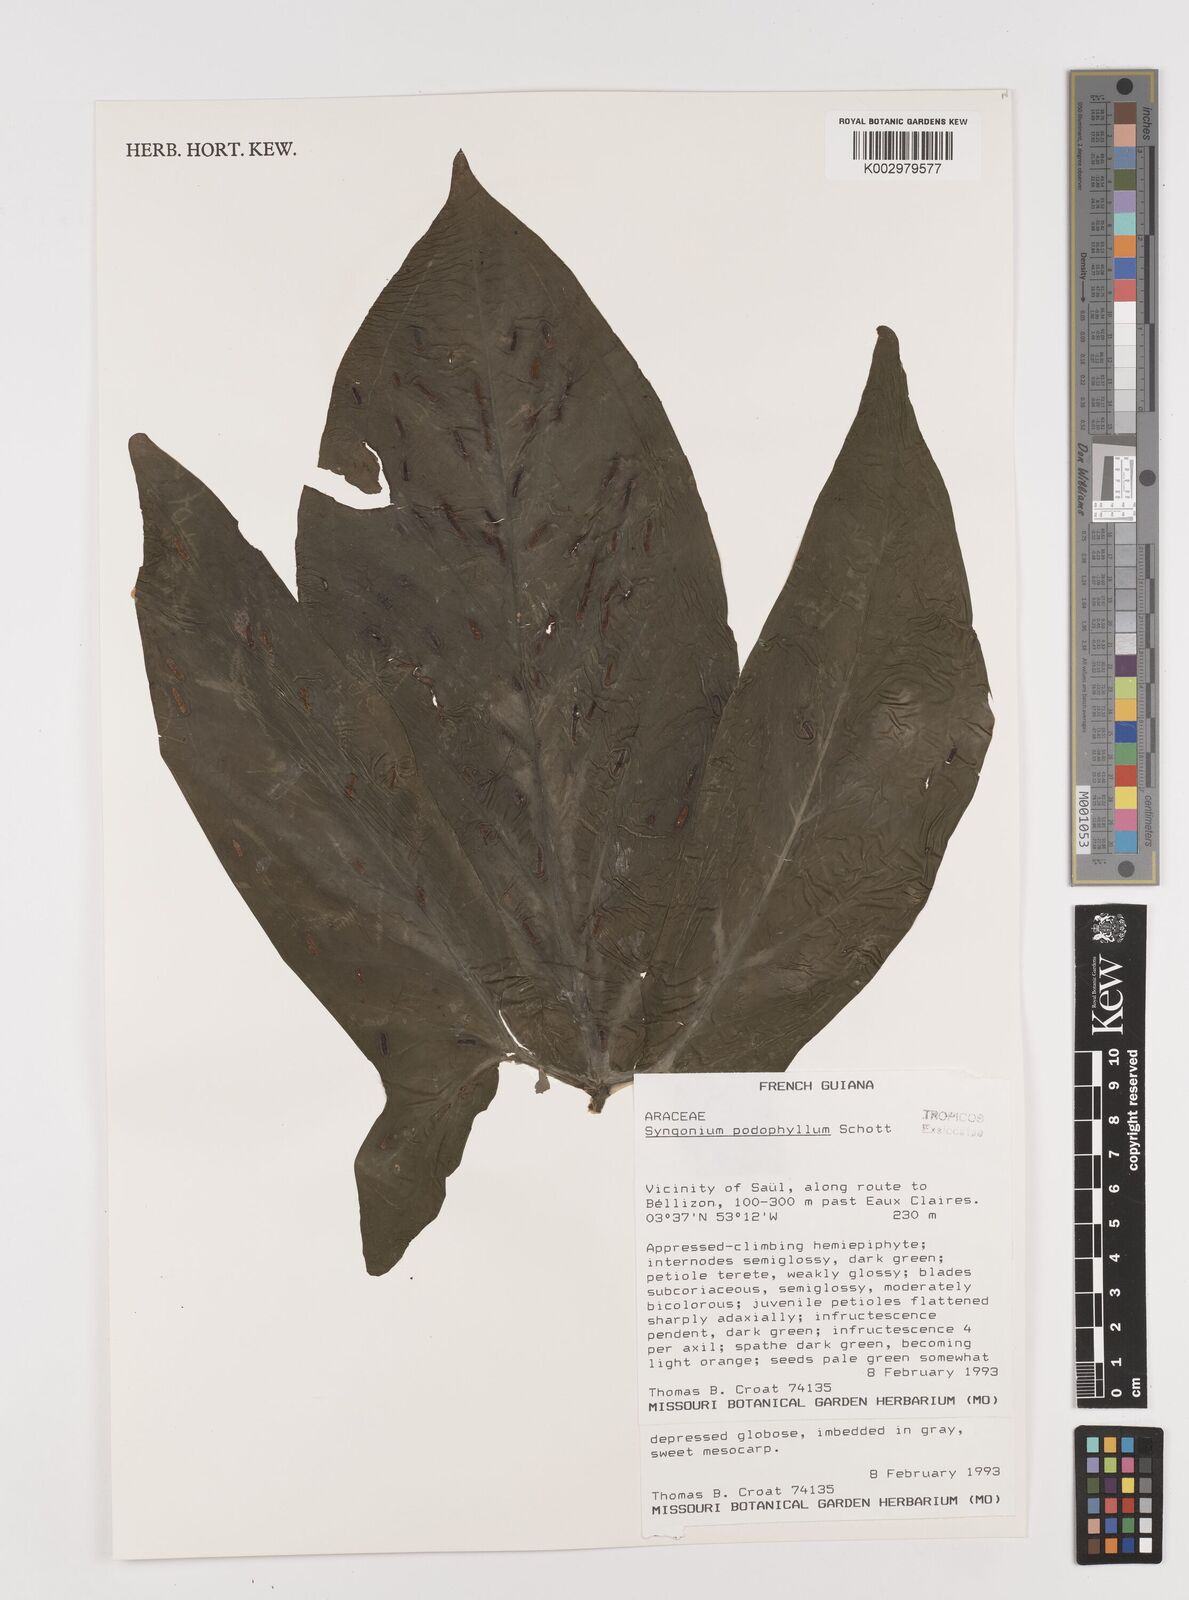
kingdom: Plantae
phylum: Tracheophyta
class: Liliopsida
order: Alismatales
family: Araceae
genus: Syngonium
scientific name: Syngonium podophyllum
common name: American evergreen
